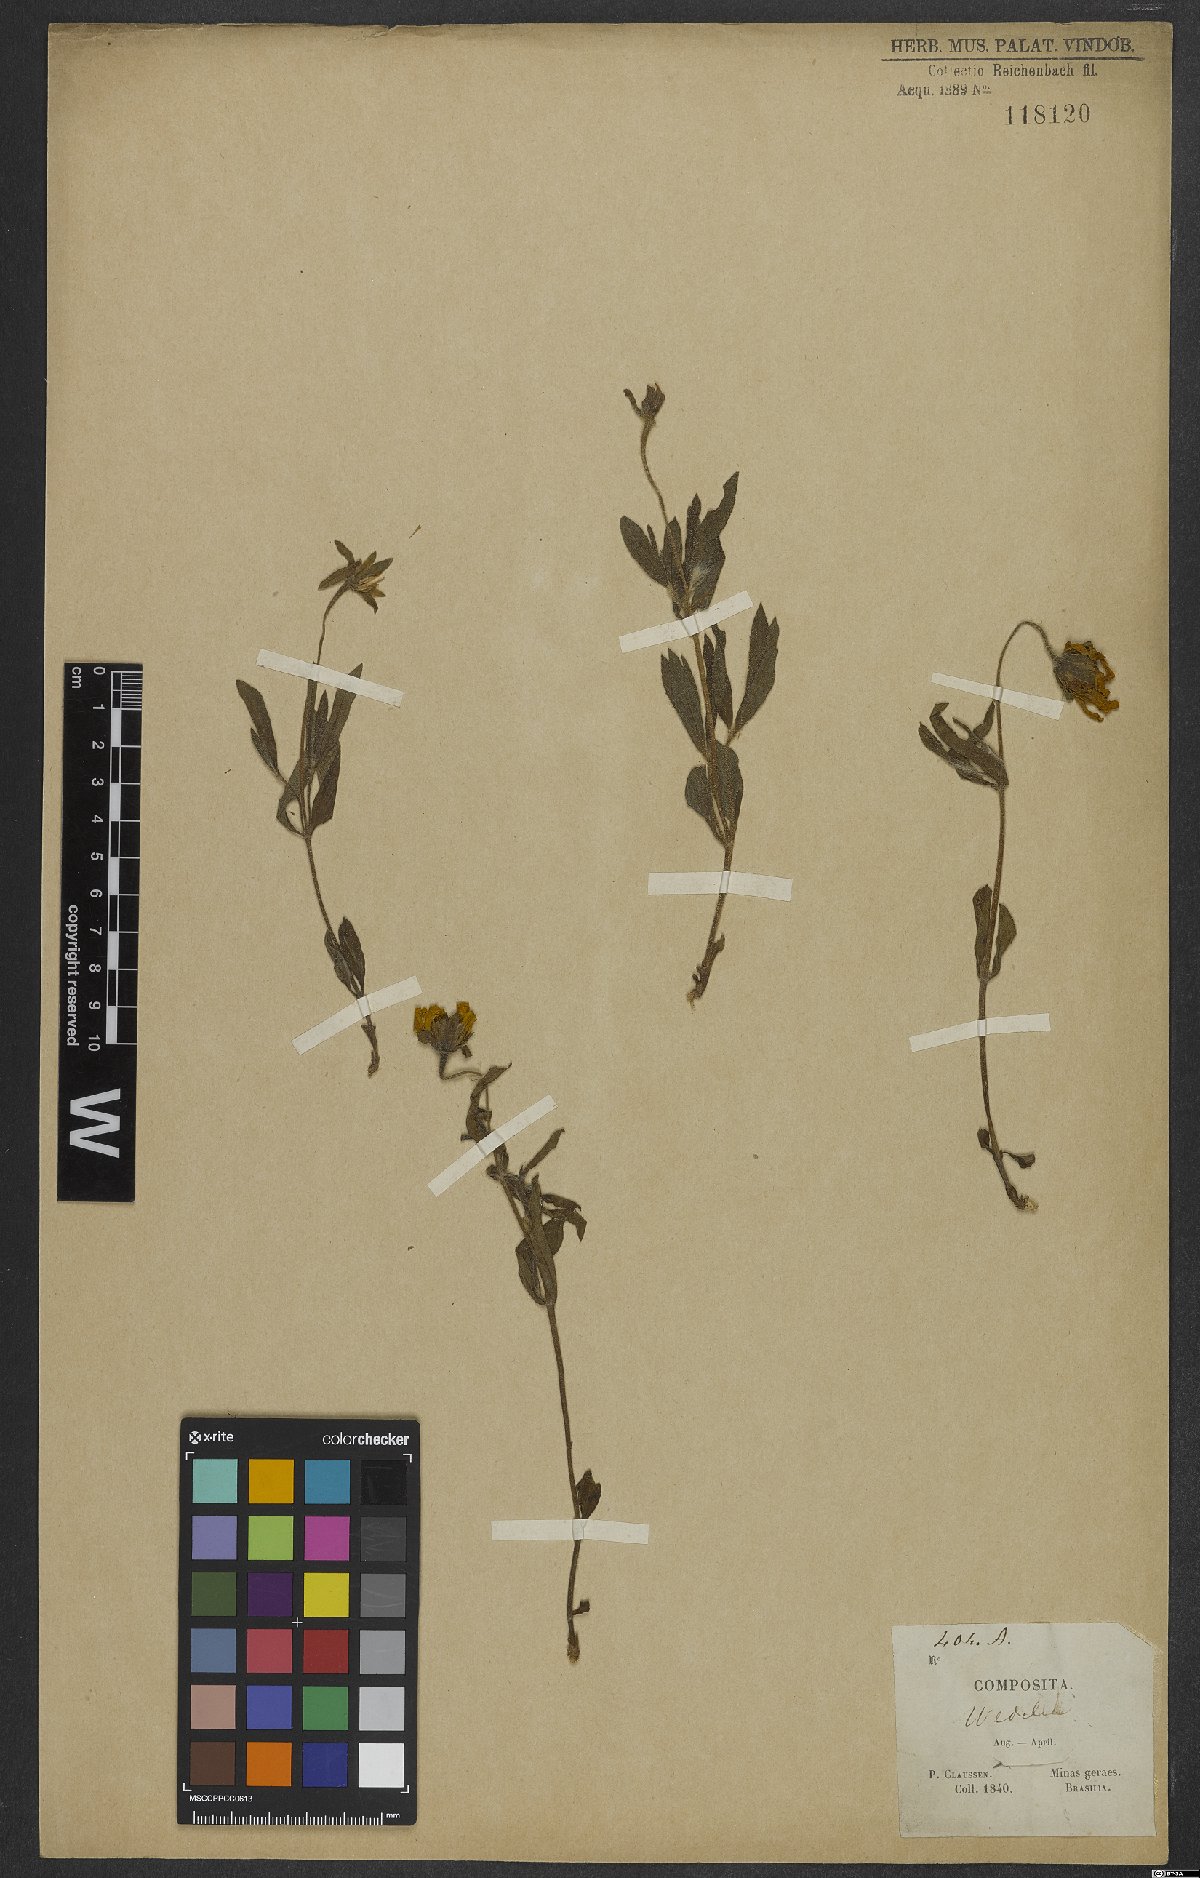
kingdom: Plantae
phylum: Tracheophyta
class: Magnoliopsida
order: Asterales
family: Asteraceae
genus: Wedelia
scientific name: Wedelia
